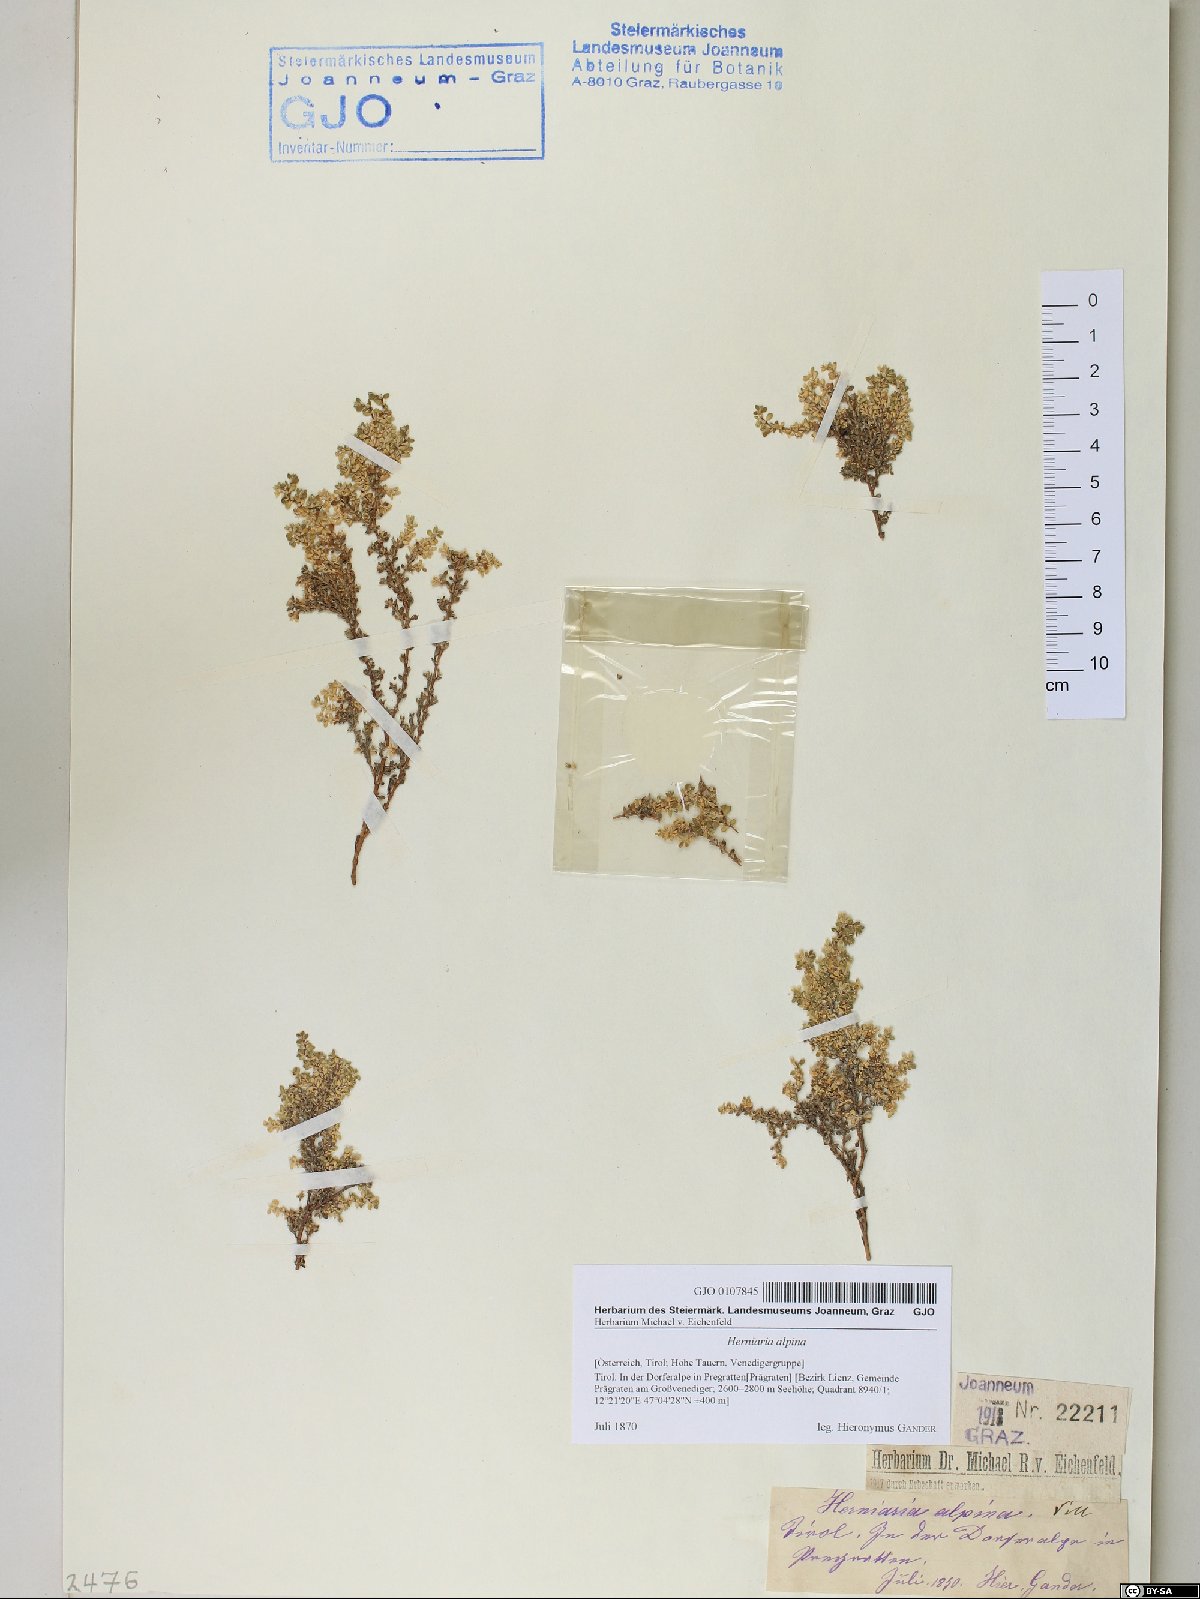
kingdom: Plantae
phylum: Tracheophyta
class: Magnoliopsida
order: Caryophyllales
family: Caryophyllaceae
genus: Herniaria
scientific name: Herniaria alpina
